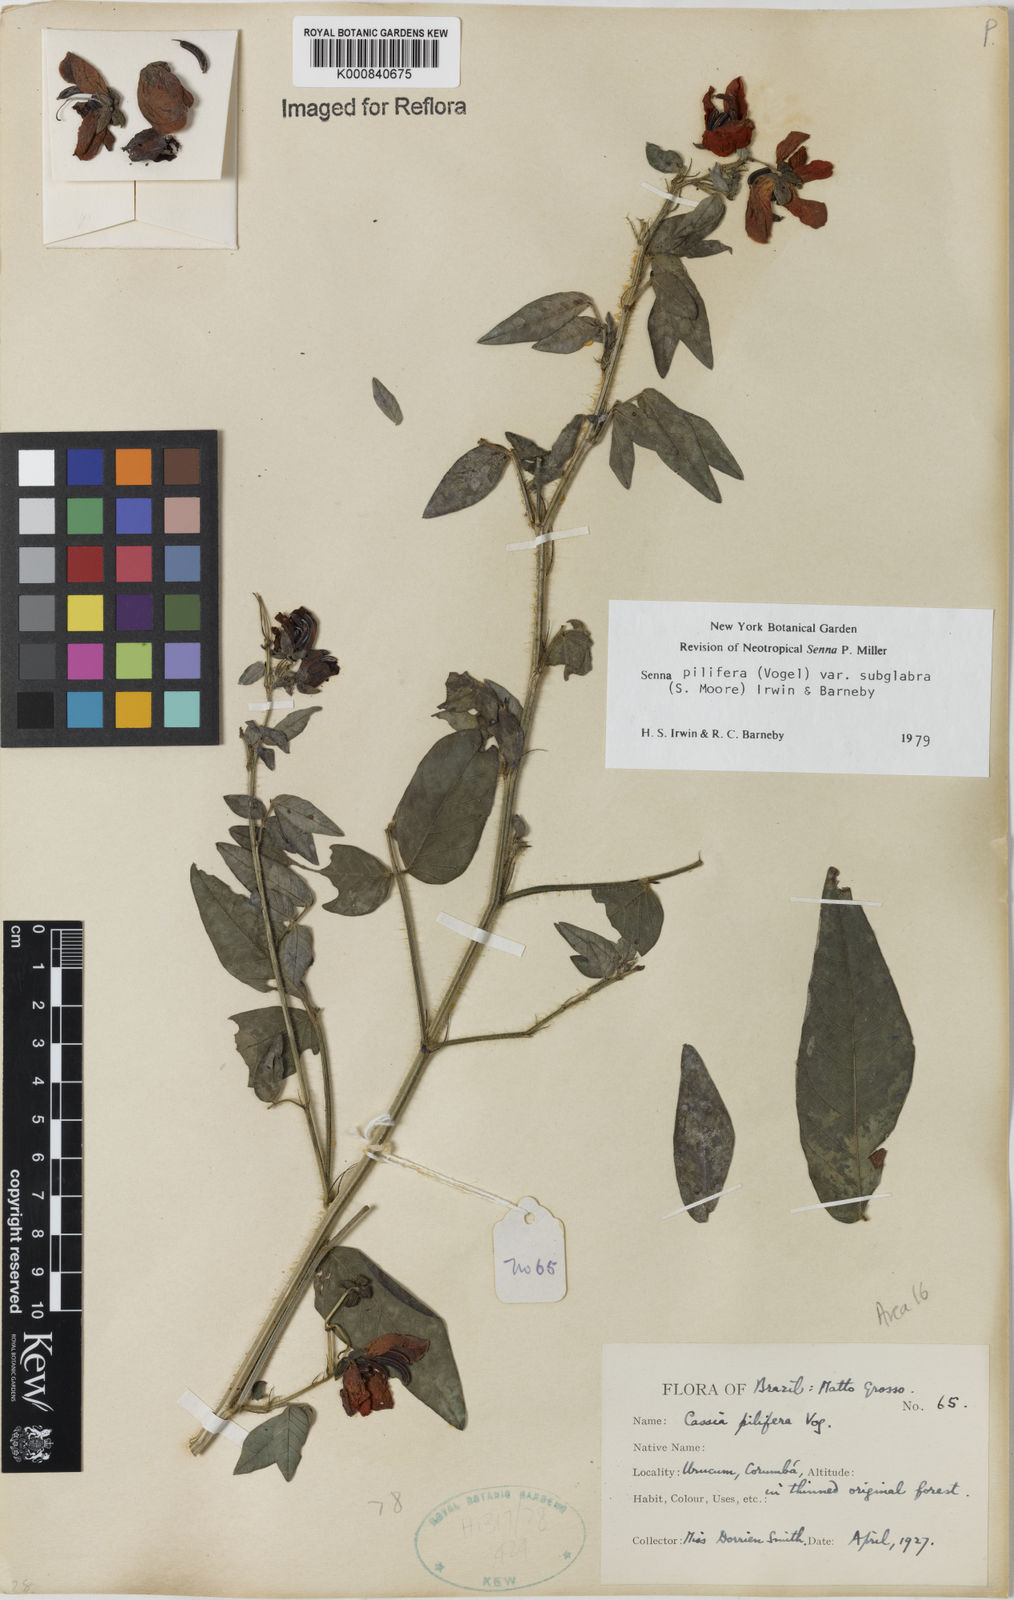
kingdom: Plantae
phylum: Tracheophyta
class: Magnoliopsida
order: Fabales
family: Fabaceae
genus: Senna
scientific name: Senna pilifera
